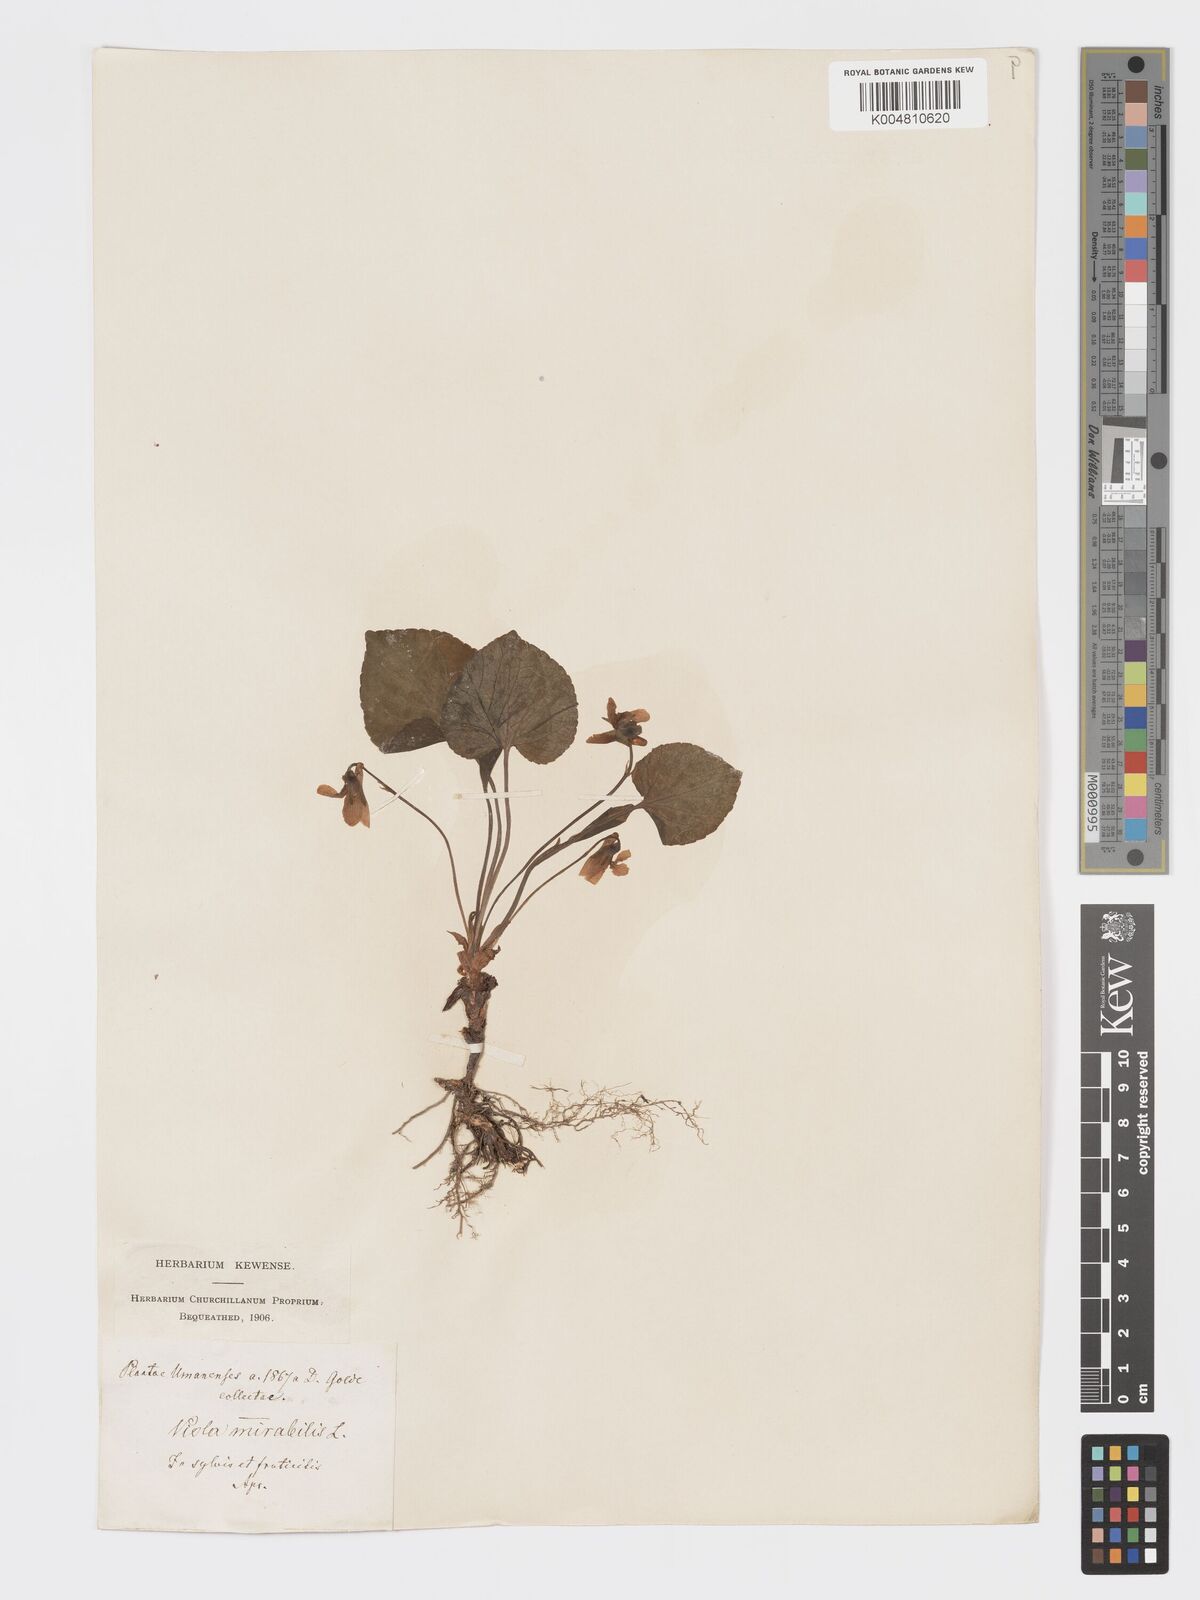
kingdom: Plantae
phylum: Tracheophyta
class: Magnoliopsida
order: Malpighiales
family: Violaceae
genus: Viola
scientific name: Viola mirabilis
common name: Wonder violet
